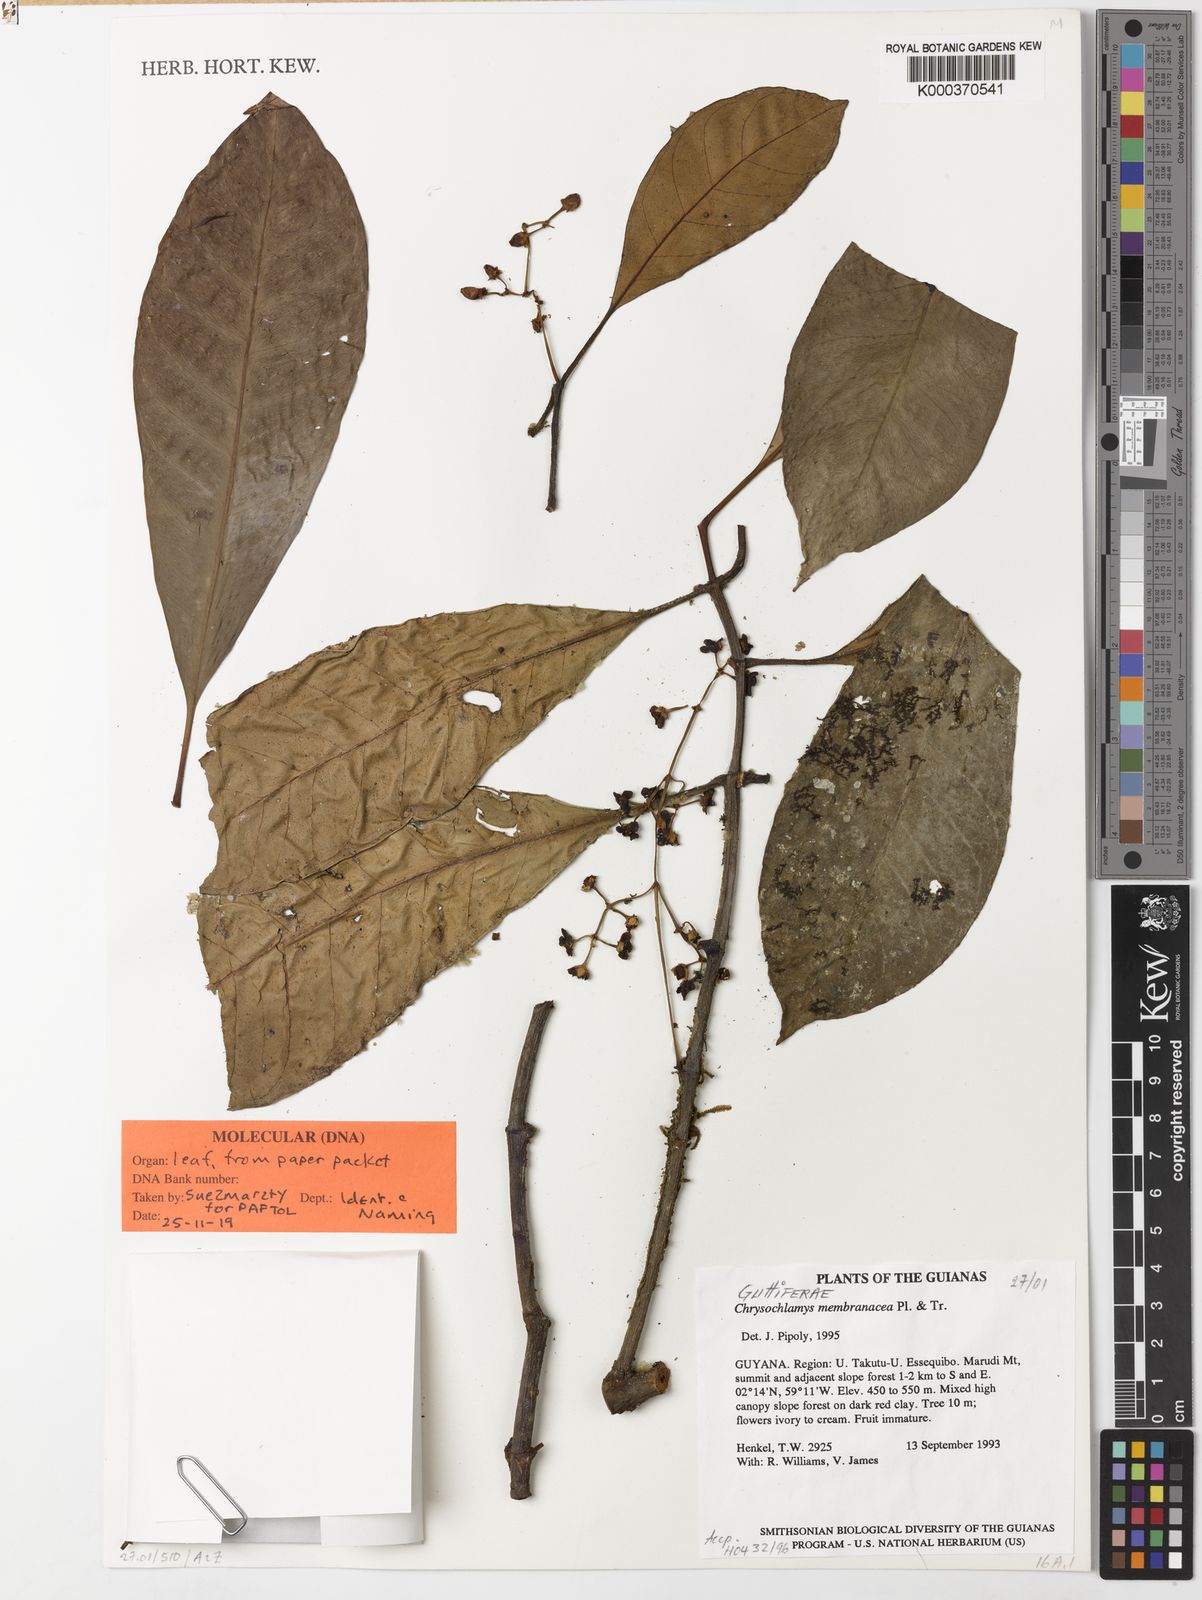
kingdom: Plantae
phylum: Tracheophyta
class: Magnoliopsida
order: Malpighiales
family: Clusiaceae
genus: Chrysochlamys
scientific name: Chrysochlamys membranacea
